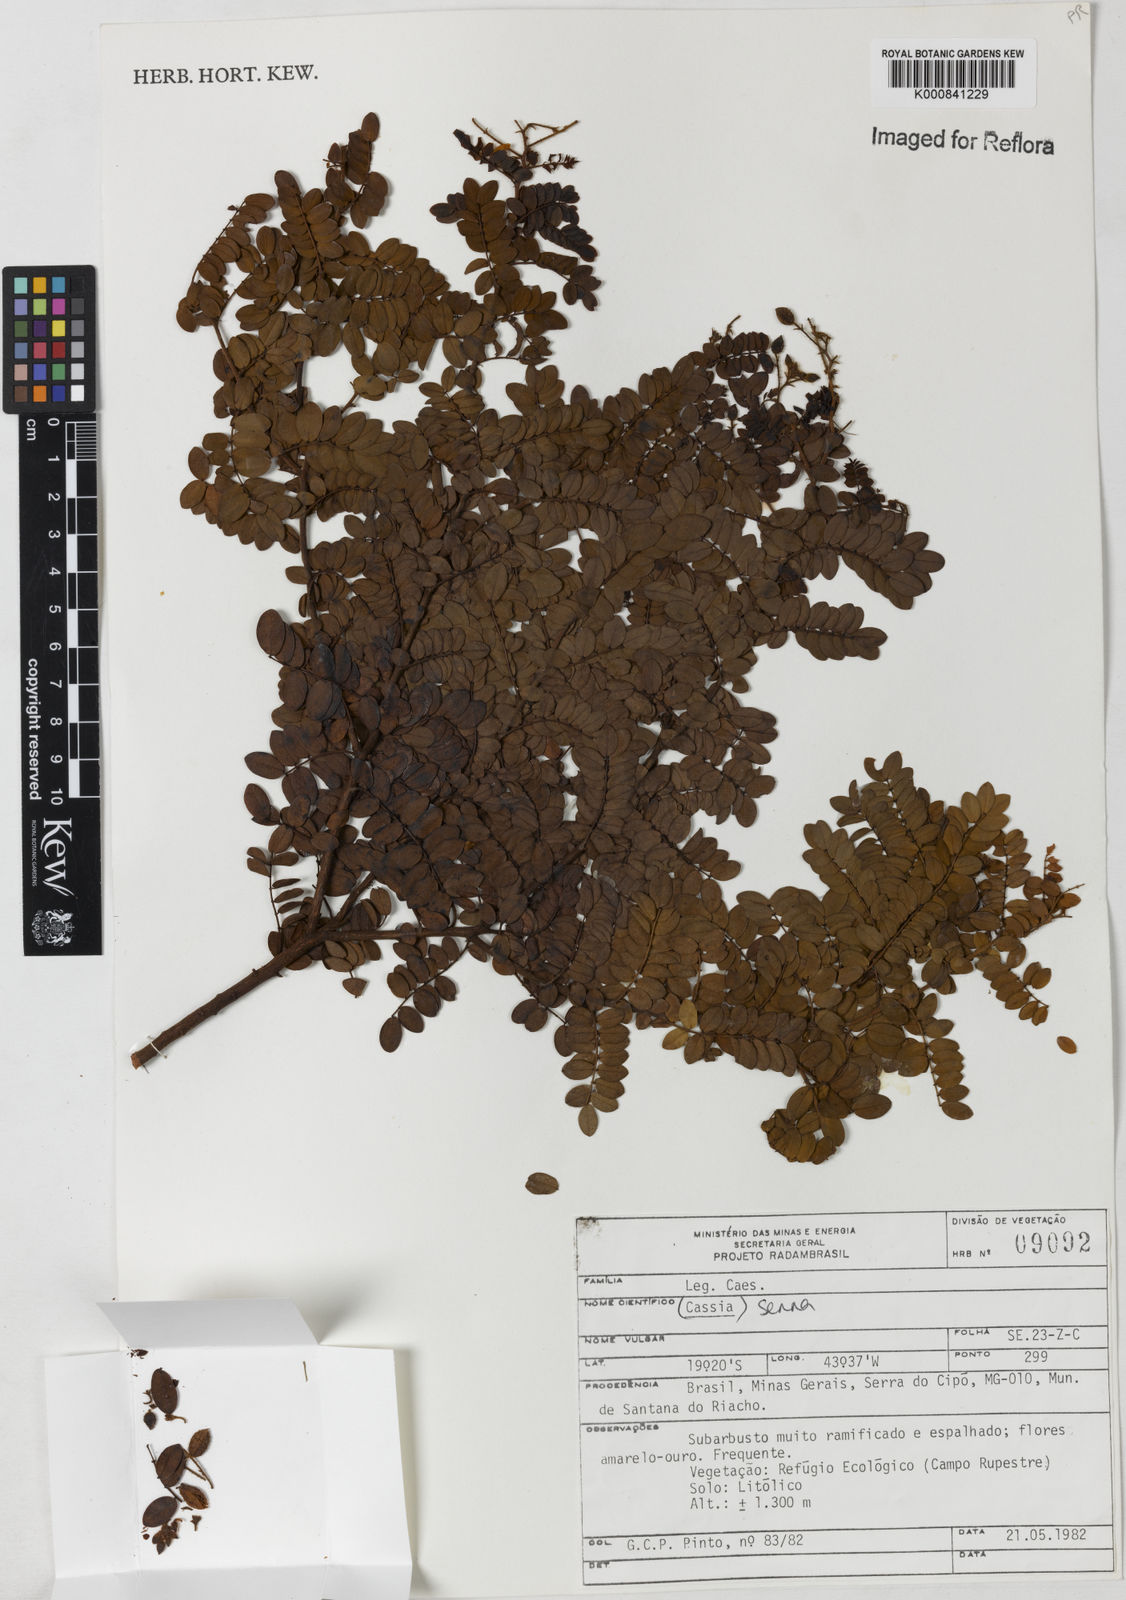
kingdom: Plantae
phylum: Tracheophyta
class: Magnoliopsida
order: Fabales
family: Fabaceae
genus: Senna
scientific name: Senna
